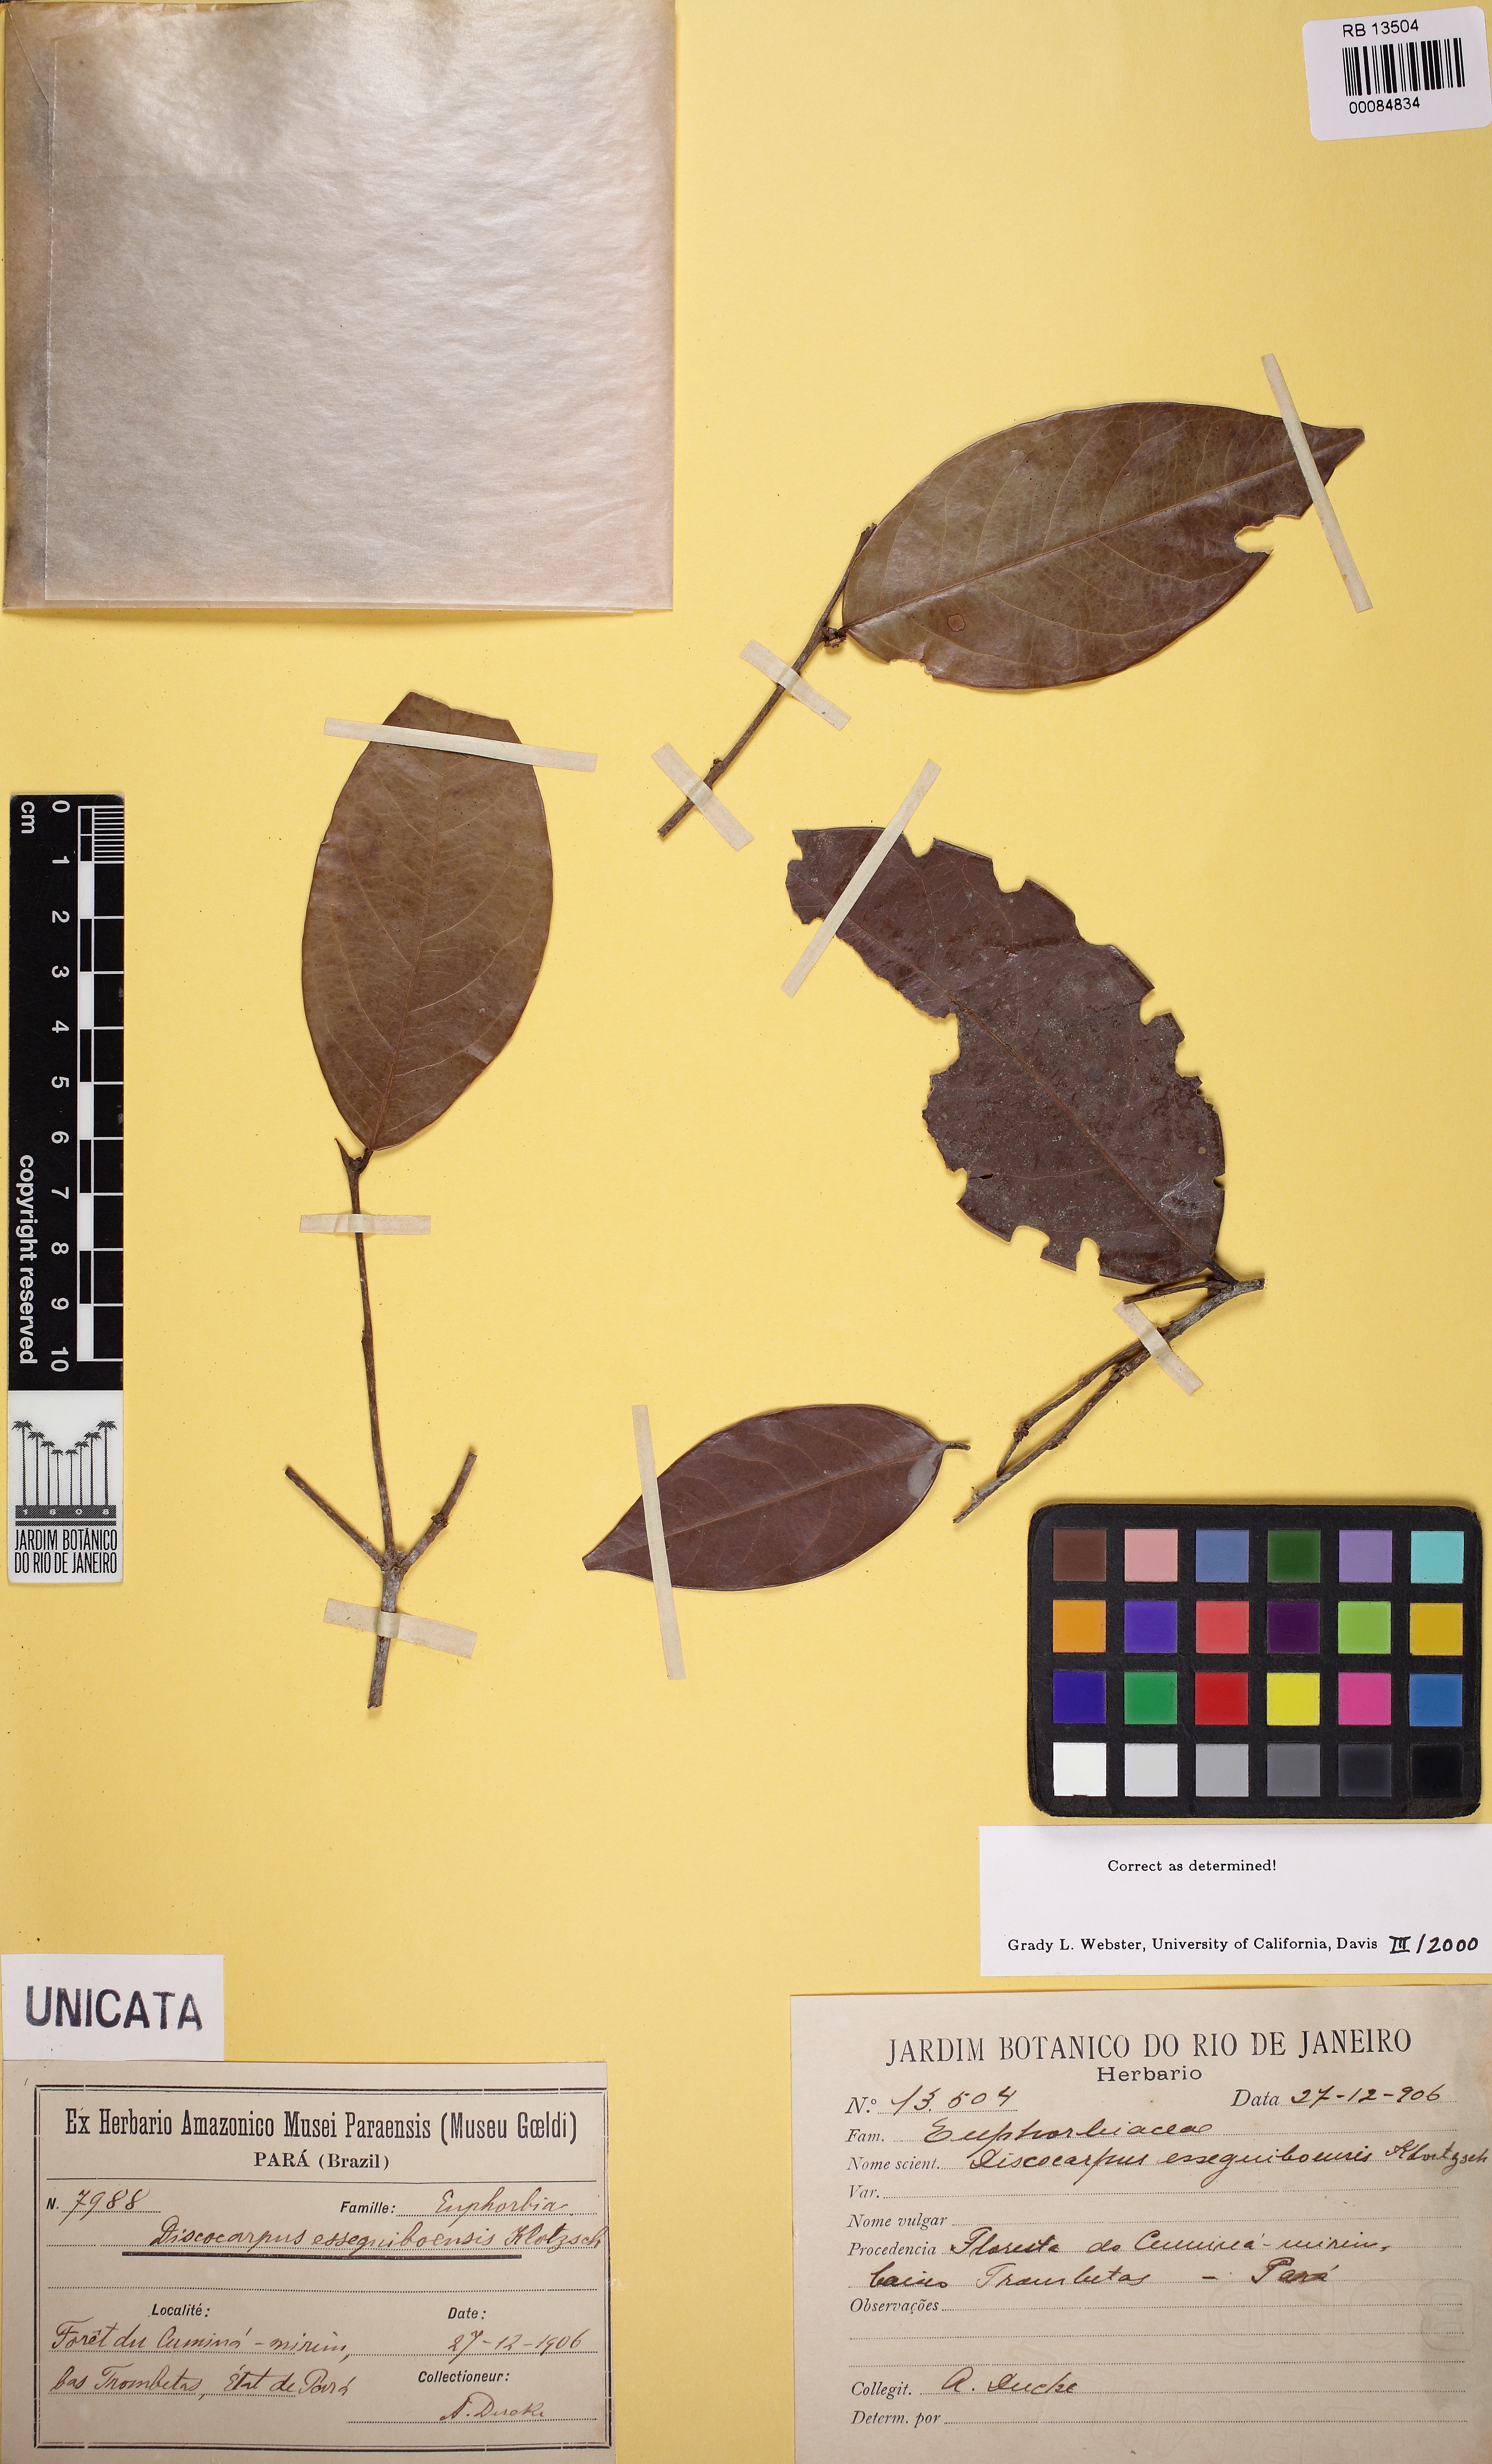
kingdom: Plantae
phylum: Tracheophyta
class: Magnoliopsida
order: Malpighiales
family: Phyllanthaceae
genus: Discocarpus
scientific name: Discocarpus essequeboensis
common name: Sqaure-wood
